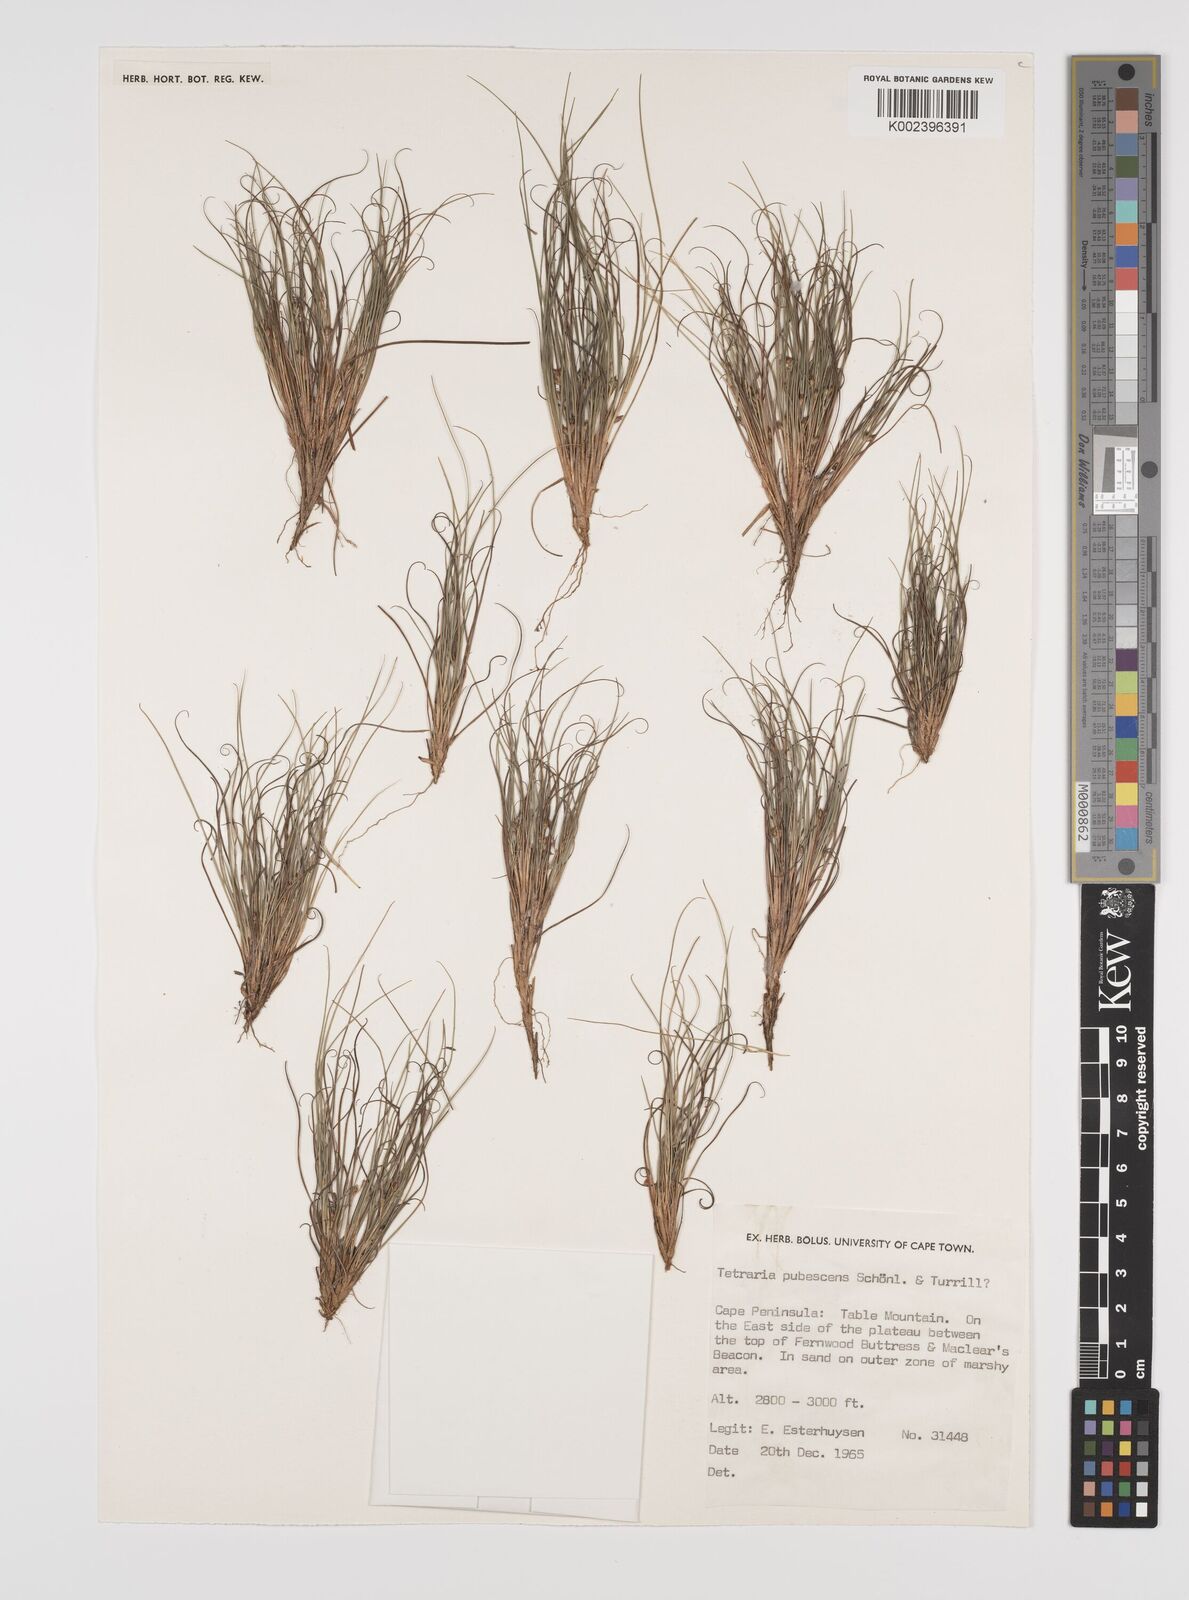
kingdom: Plantae
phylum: Tracheophyta
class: Liliopsida
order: Poales
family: Cyperaceae
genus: Tetraria
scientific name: Tetraria pubescens
